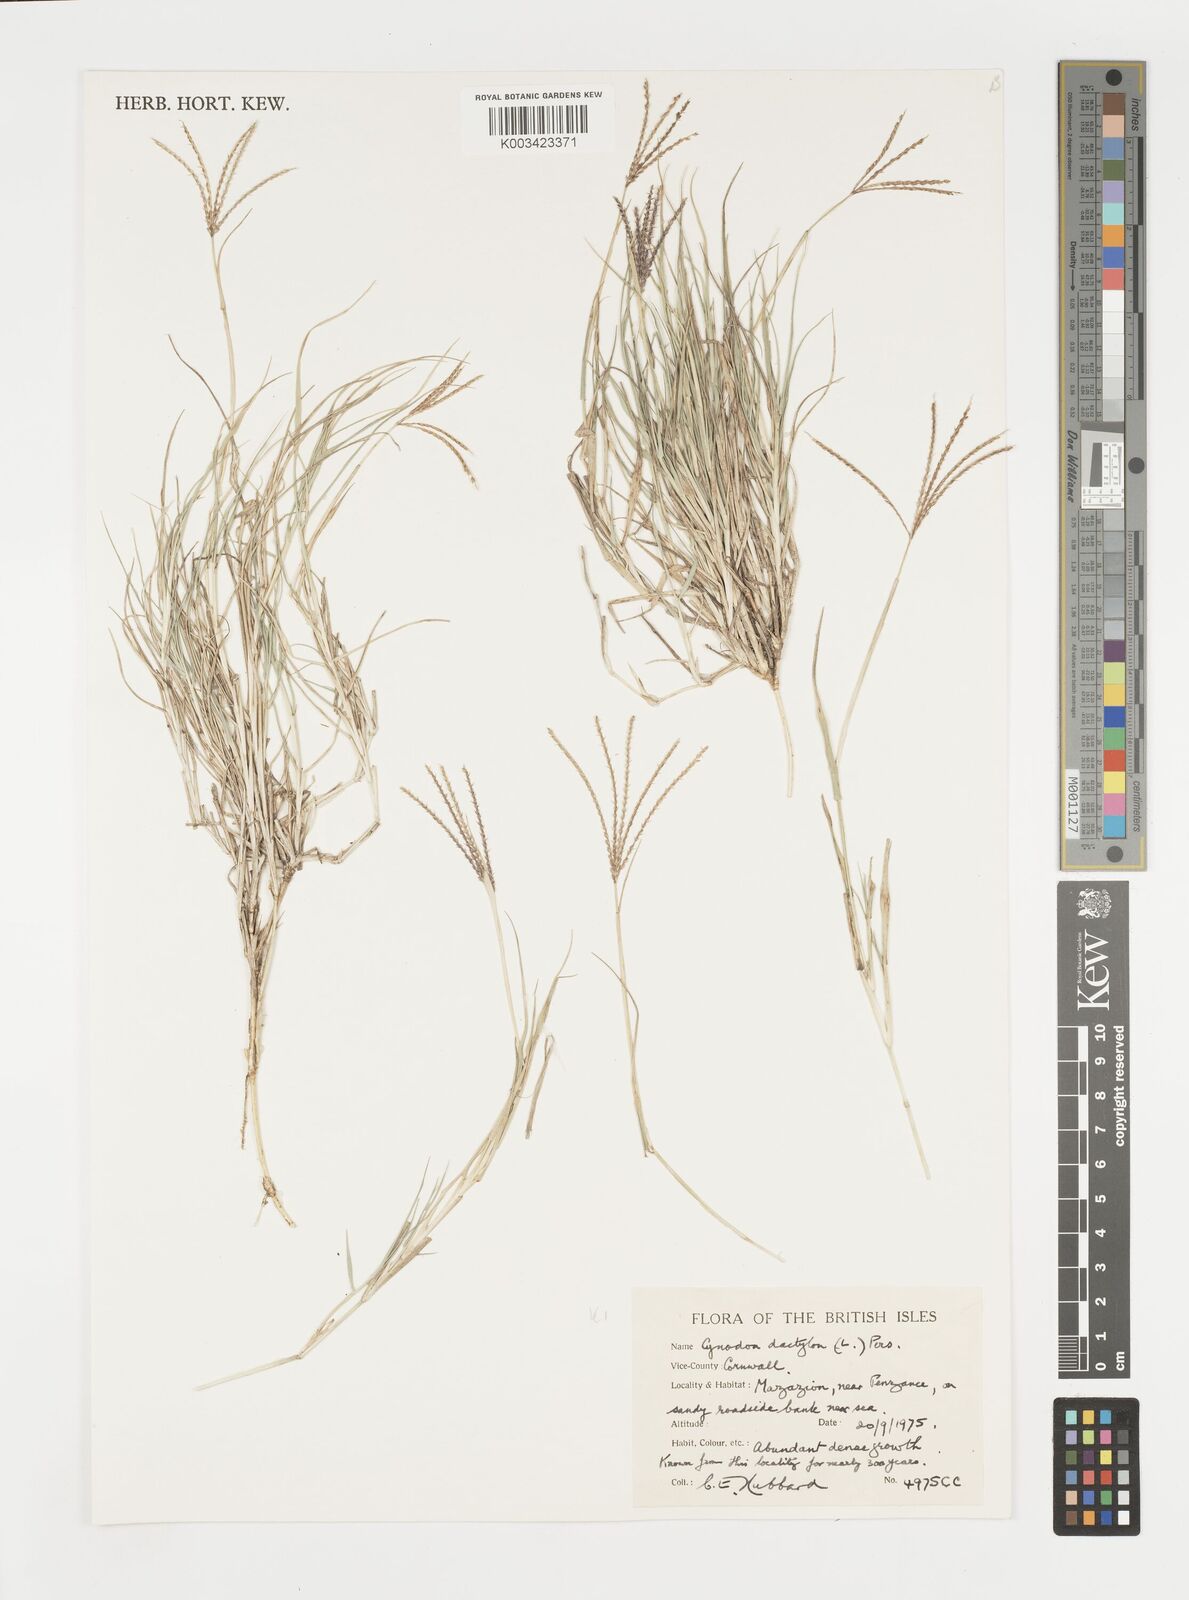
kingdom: Plantae
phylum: Tracheophyta
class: Liliopsida
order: Poales
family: Poaceae
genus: Cynodon
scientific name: Cynodon dactylon
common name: Bermuda grass
